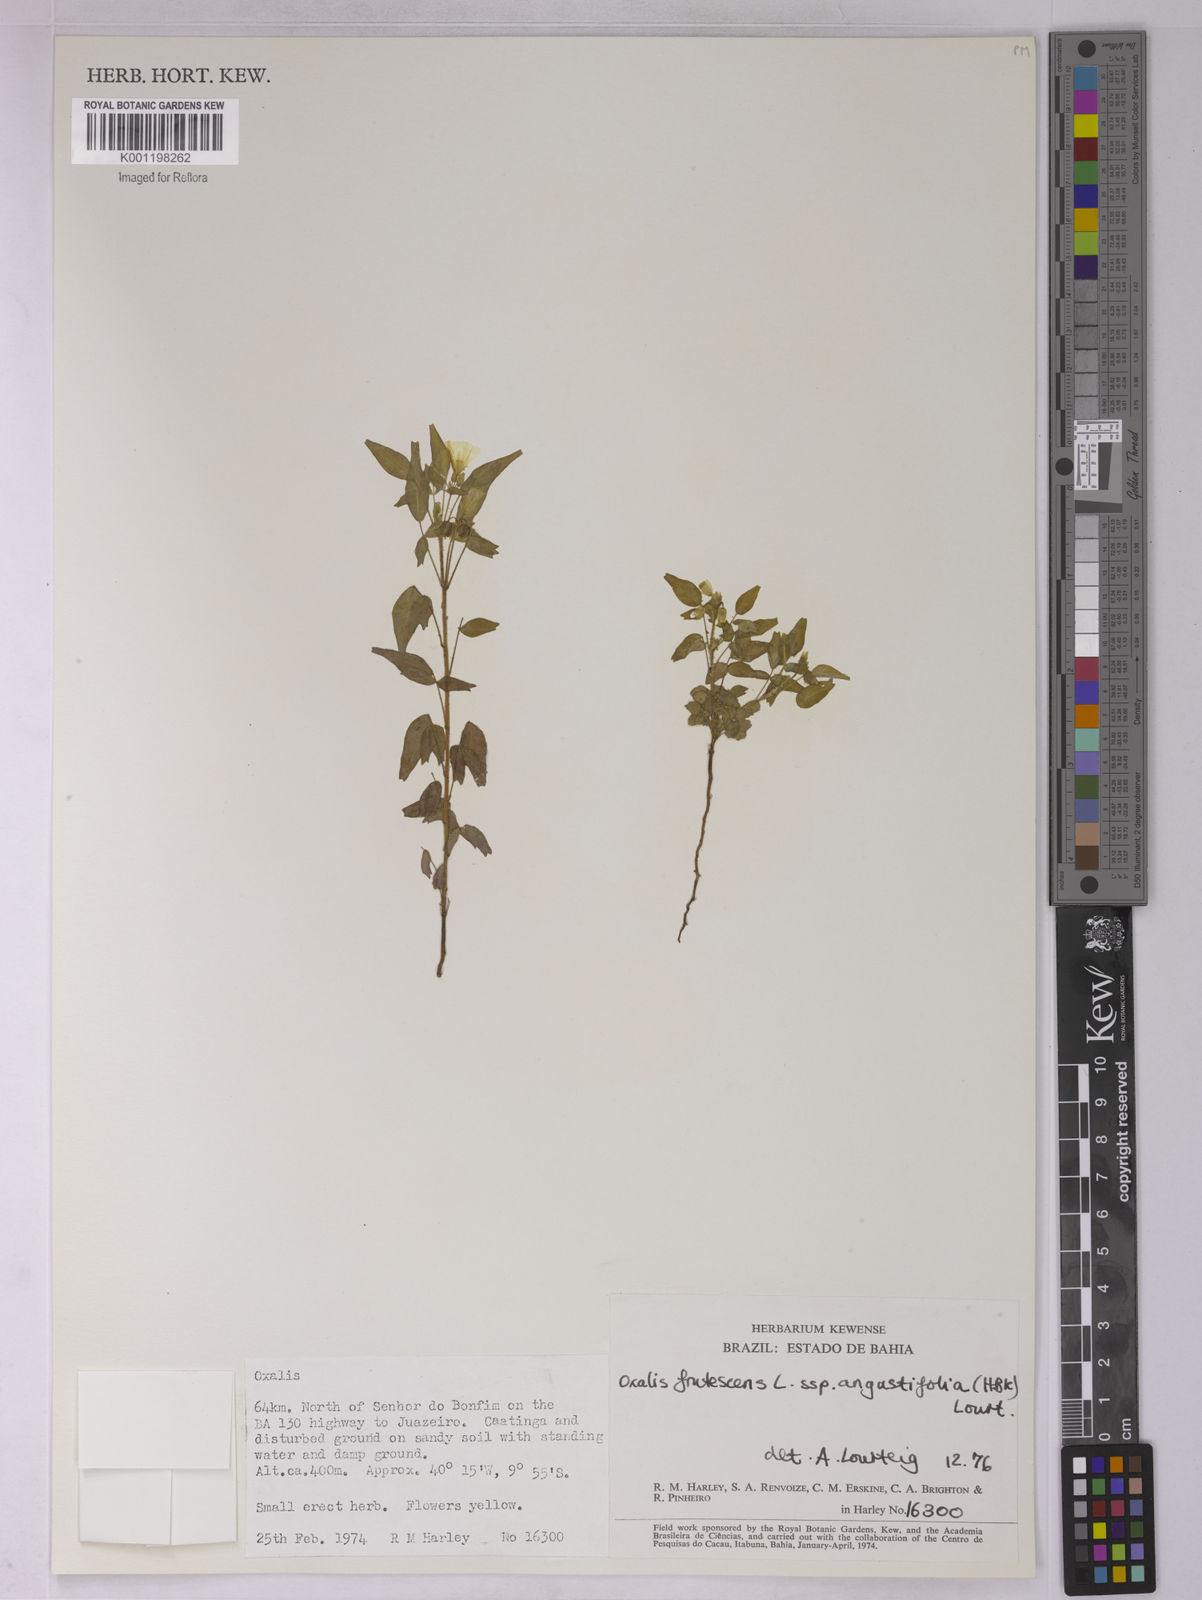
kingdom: Plantae
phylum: Tracheophyta
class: Magnoliopsida
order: Oxalidales
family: Oxalidaceae
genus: Oxalis
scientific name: Oxalis frutescens
